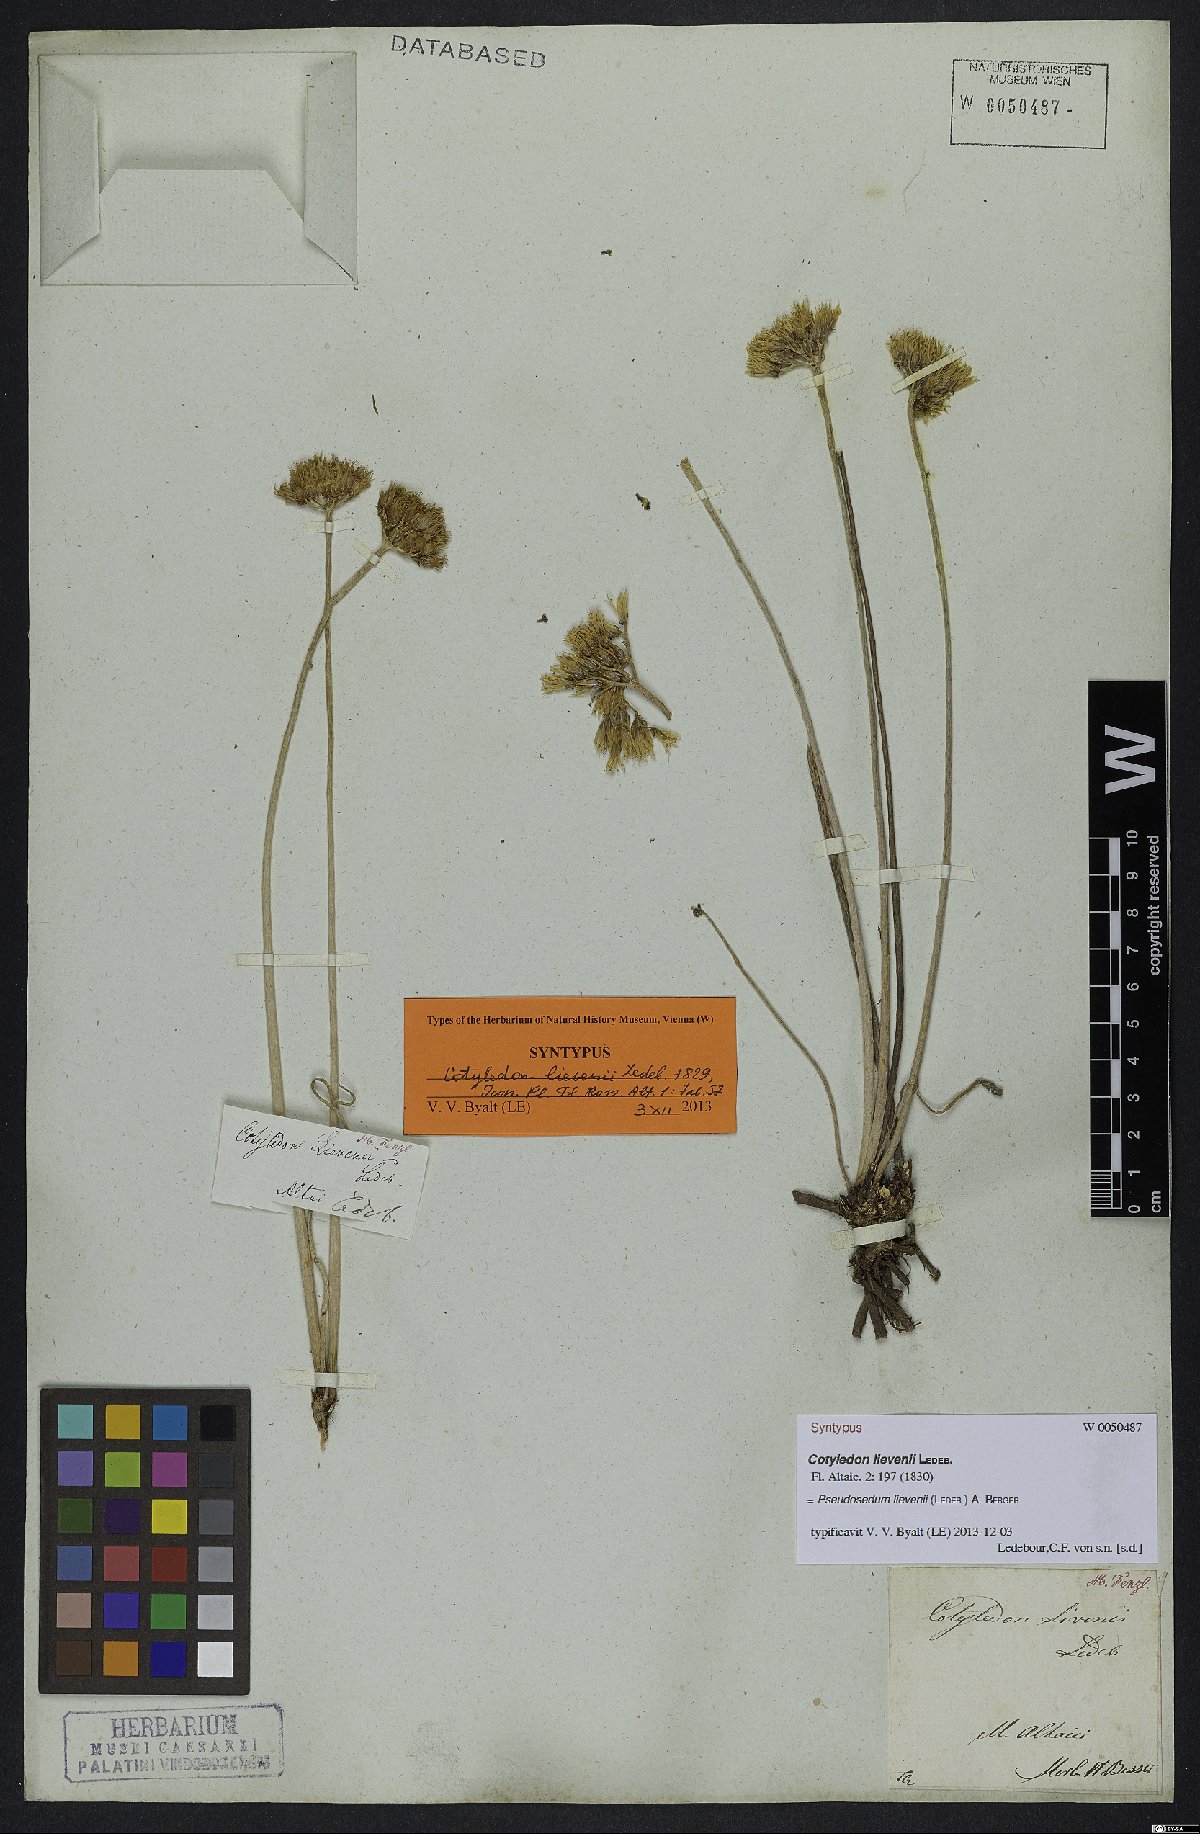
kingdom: Plantae
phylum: Tracheophyta
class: Magnoliopsida
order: Saxifragales
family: Crassulaceae
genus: Pseudosedum
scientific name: Pseudosedum lievenii
